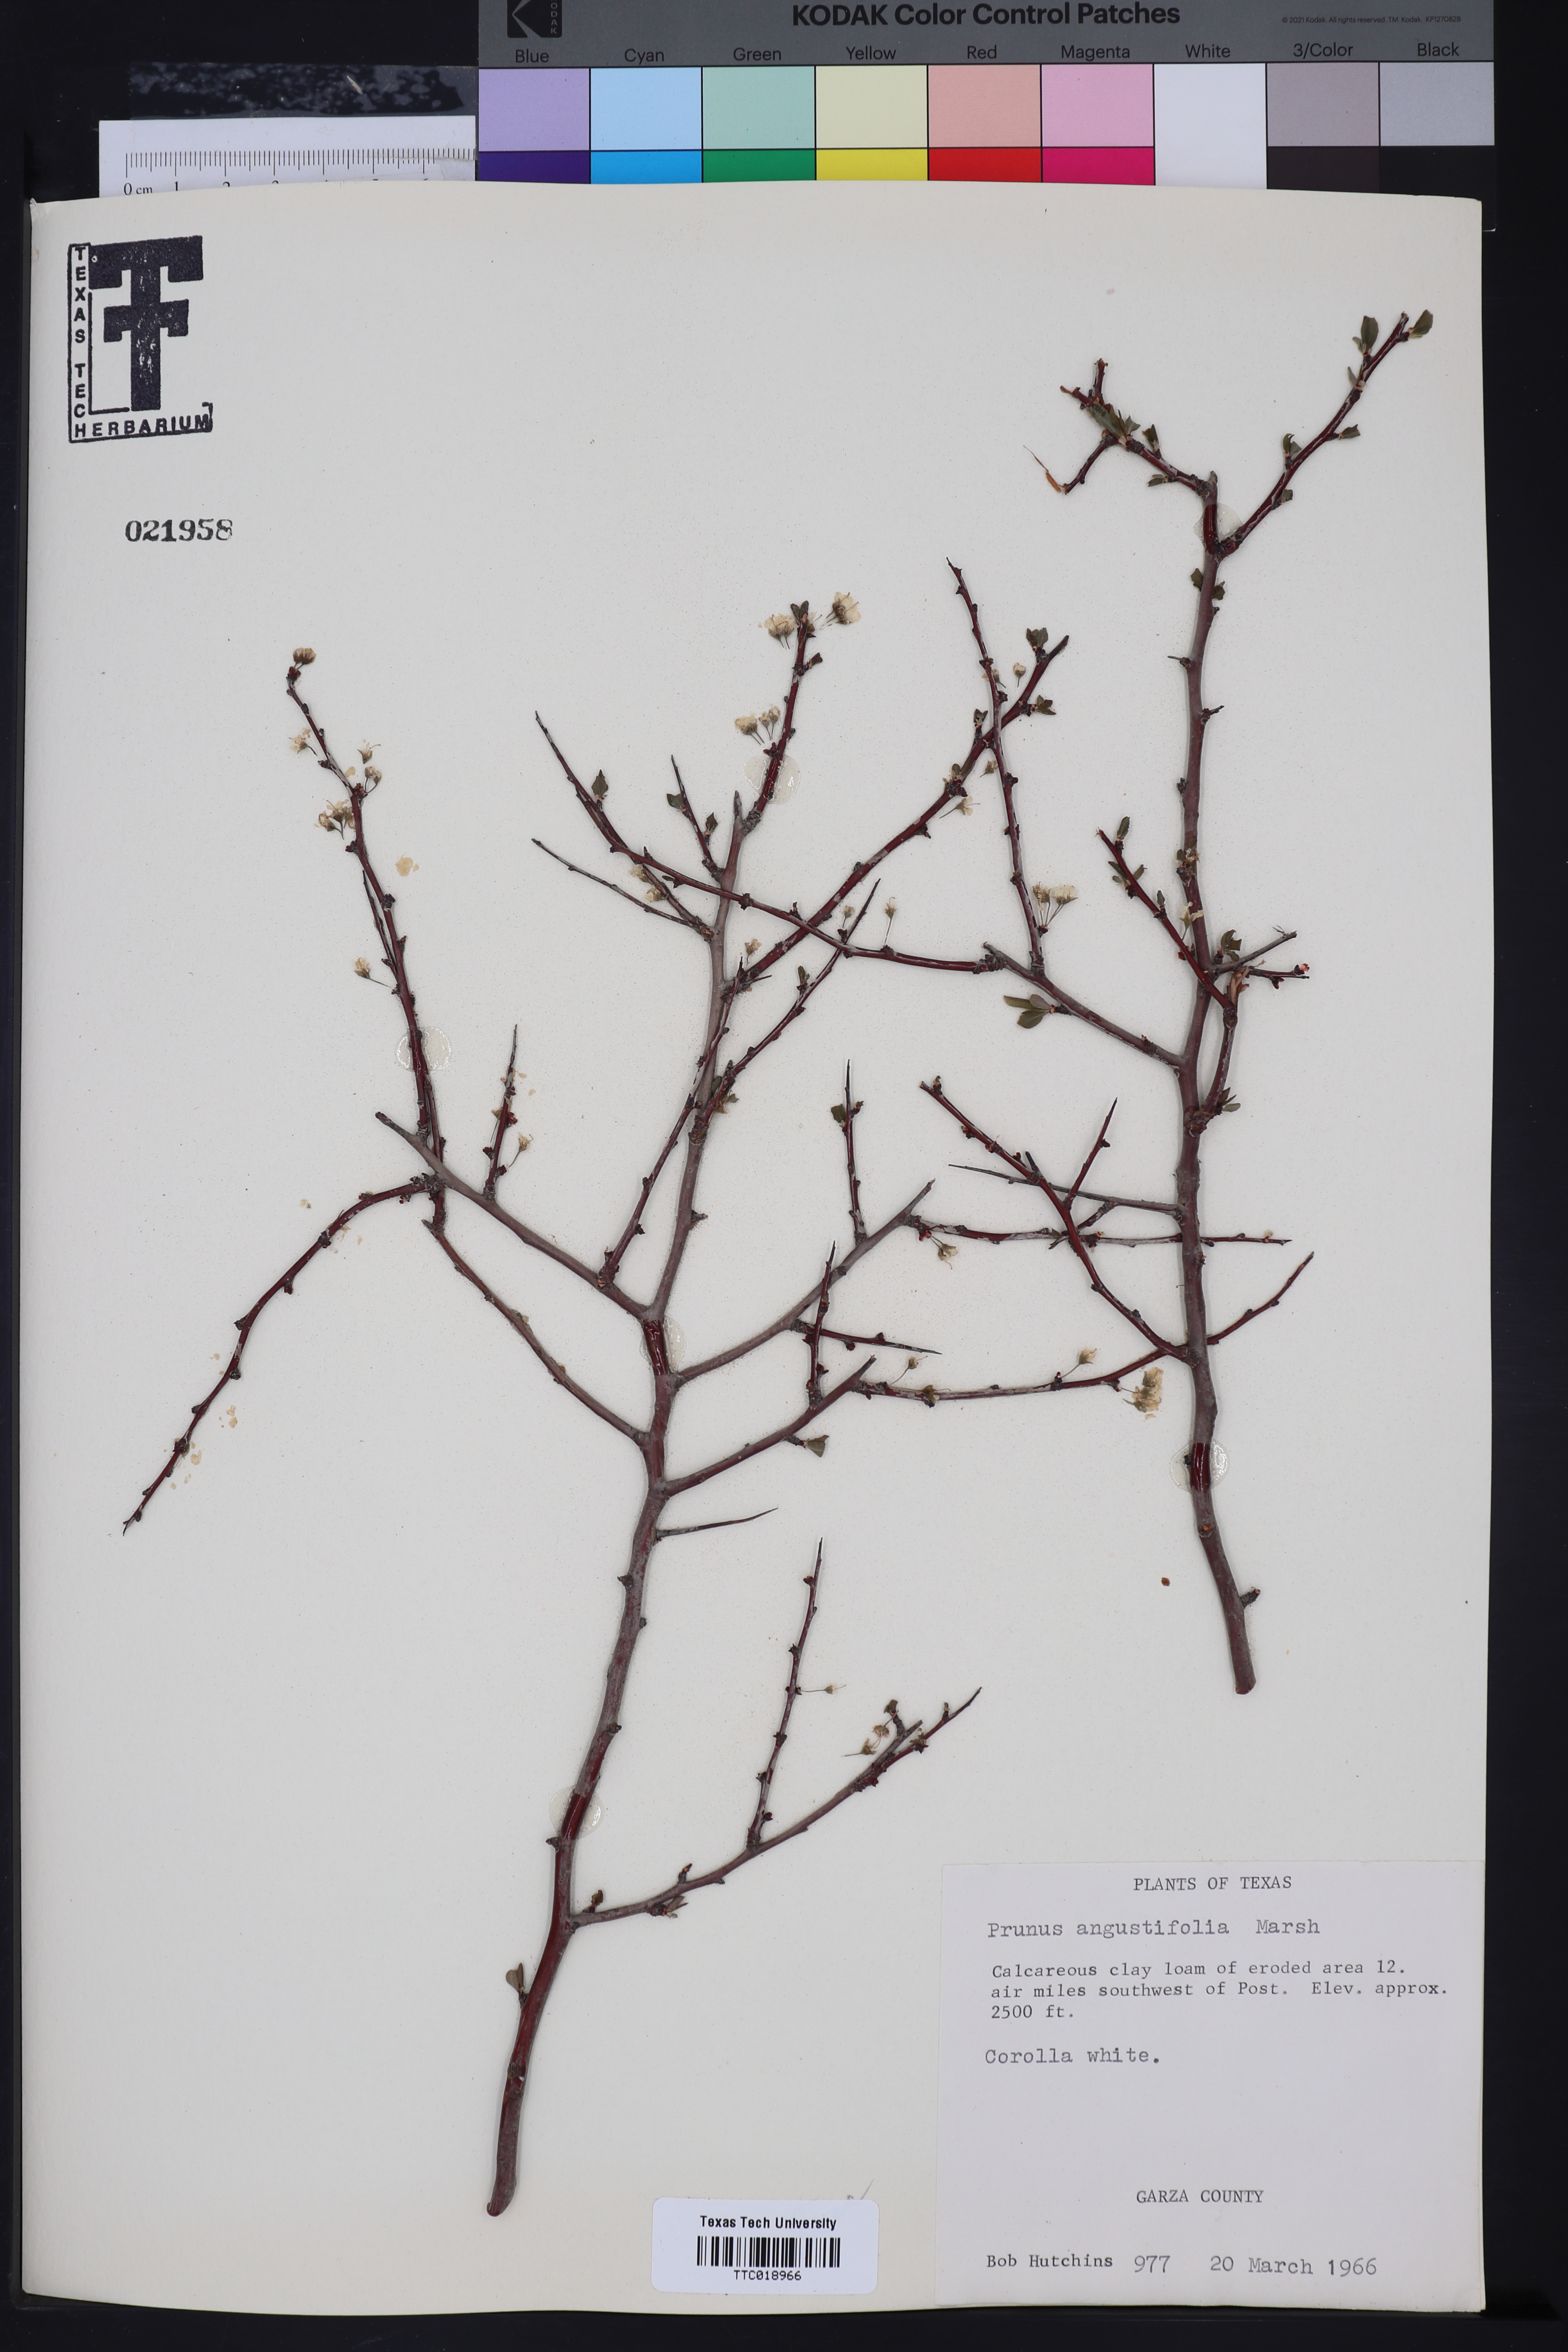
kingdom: Plantae
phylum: Tracheophyta
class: Magnoliopsida
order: Rosales
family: Rosaceae
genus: Prunus
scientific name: Prunus angustifolia
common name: Cherokee plum
